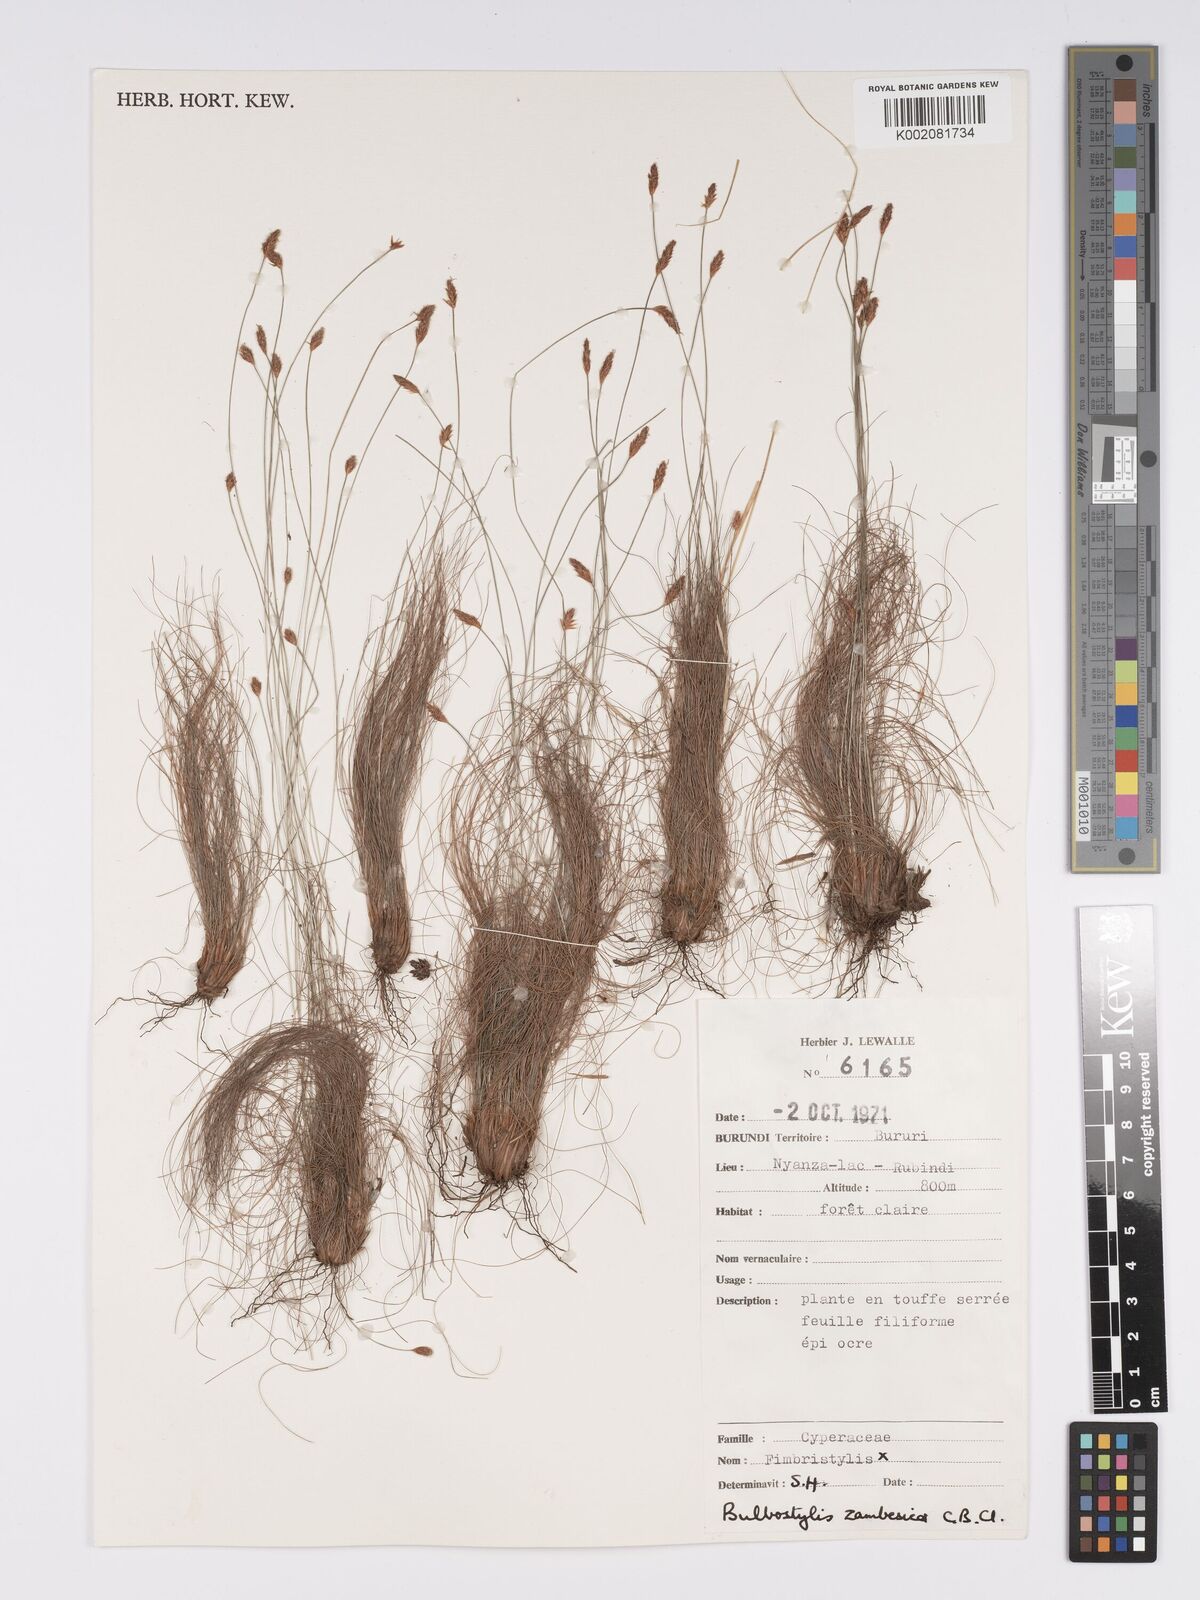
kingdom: Plantae
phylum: Tracheophyta
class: Liliopsida
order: Poales
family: Cyperaceae
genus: Bulbostylis
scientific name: Bulbostylis macra
